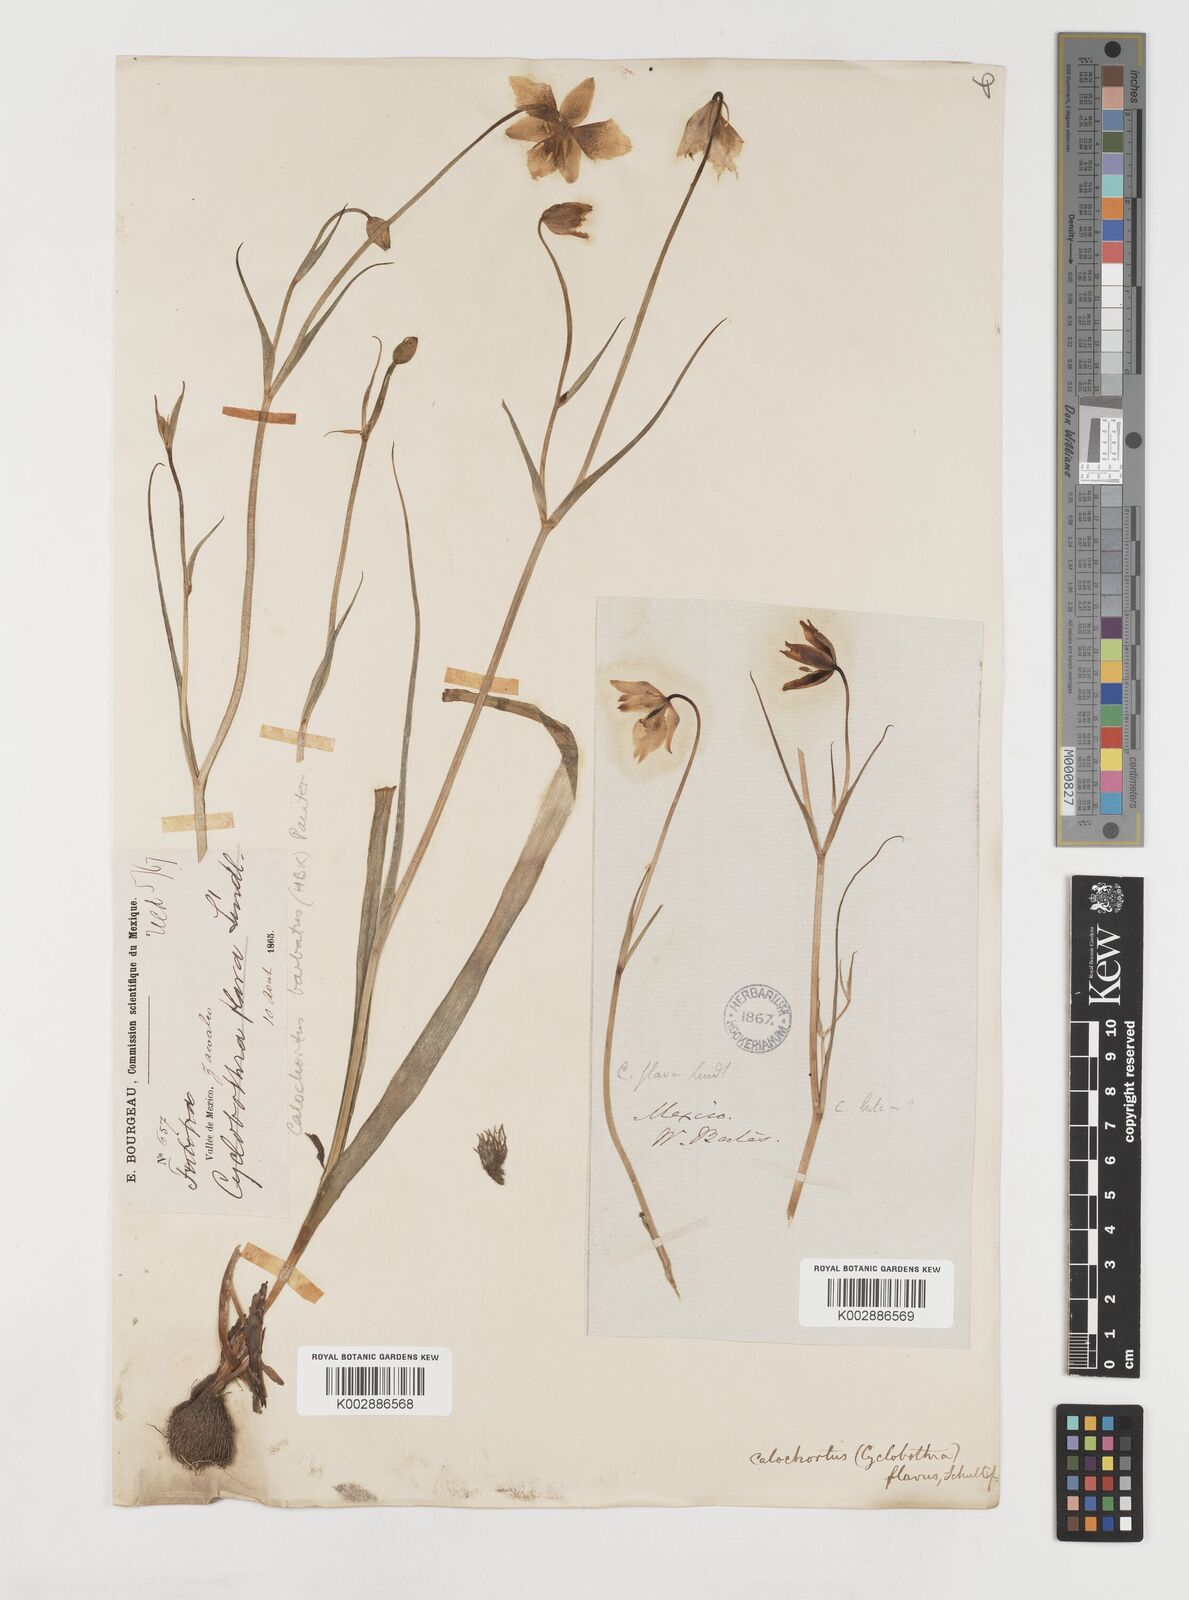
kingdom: Plantae
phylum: Tracheophyta
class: Liliopsida
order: Liliales
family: Liliaceae
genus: Calochortus
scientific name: Calochortus barbatus
